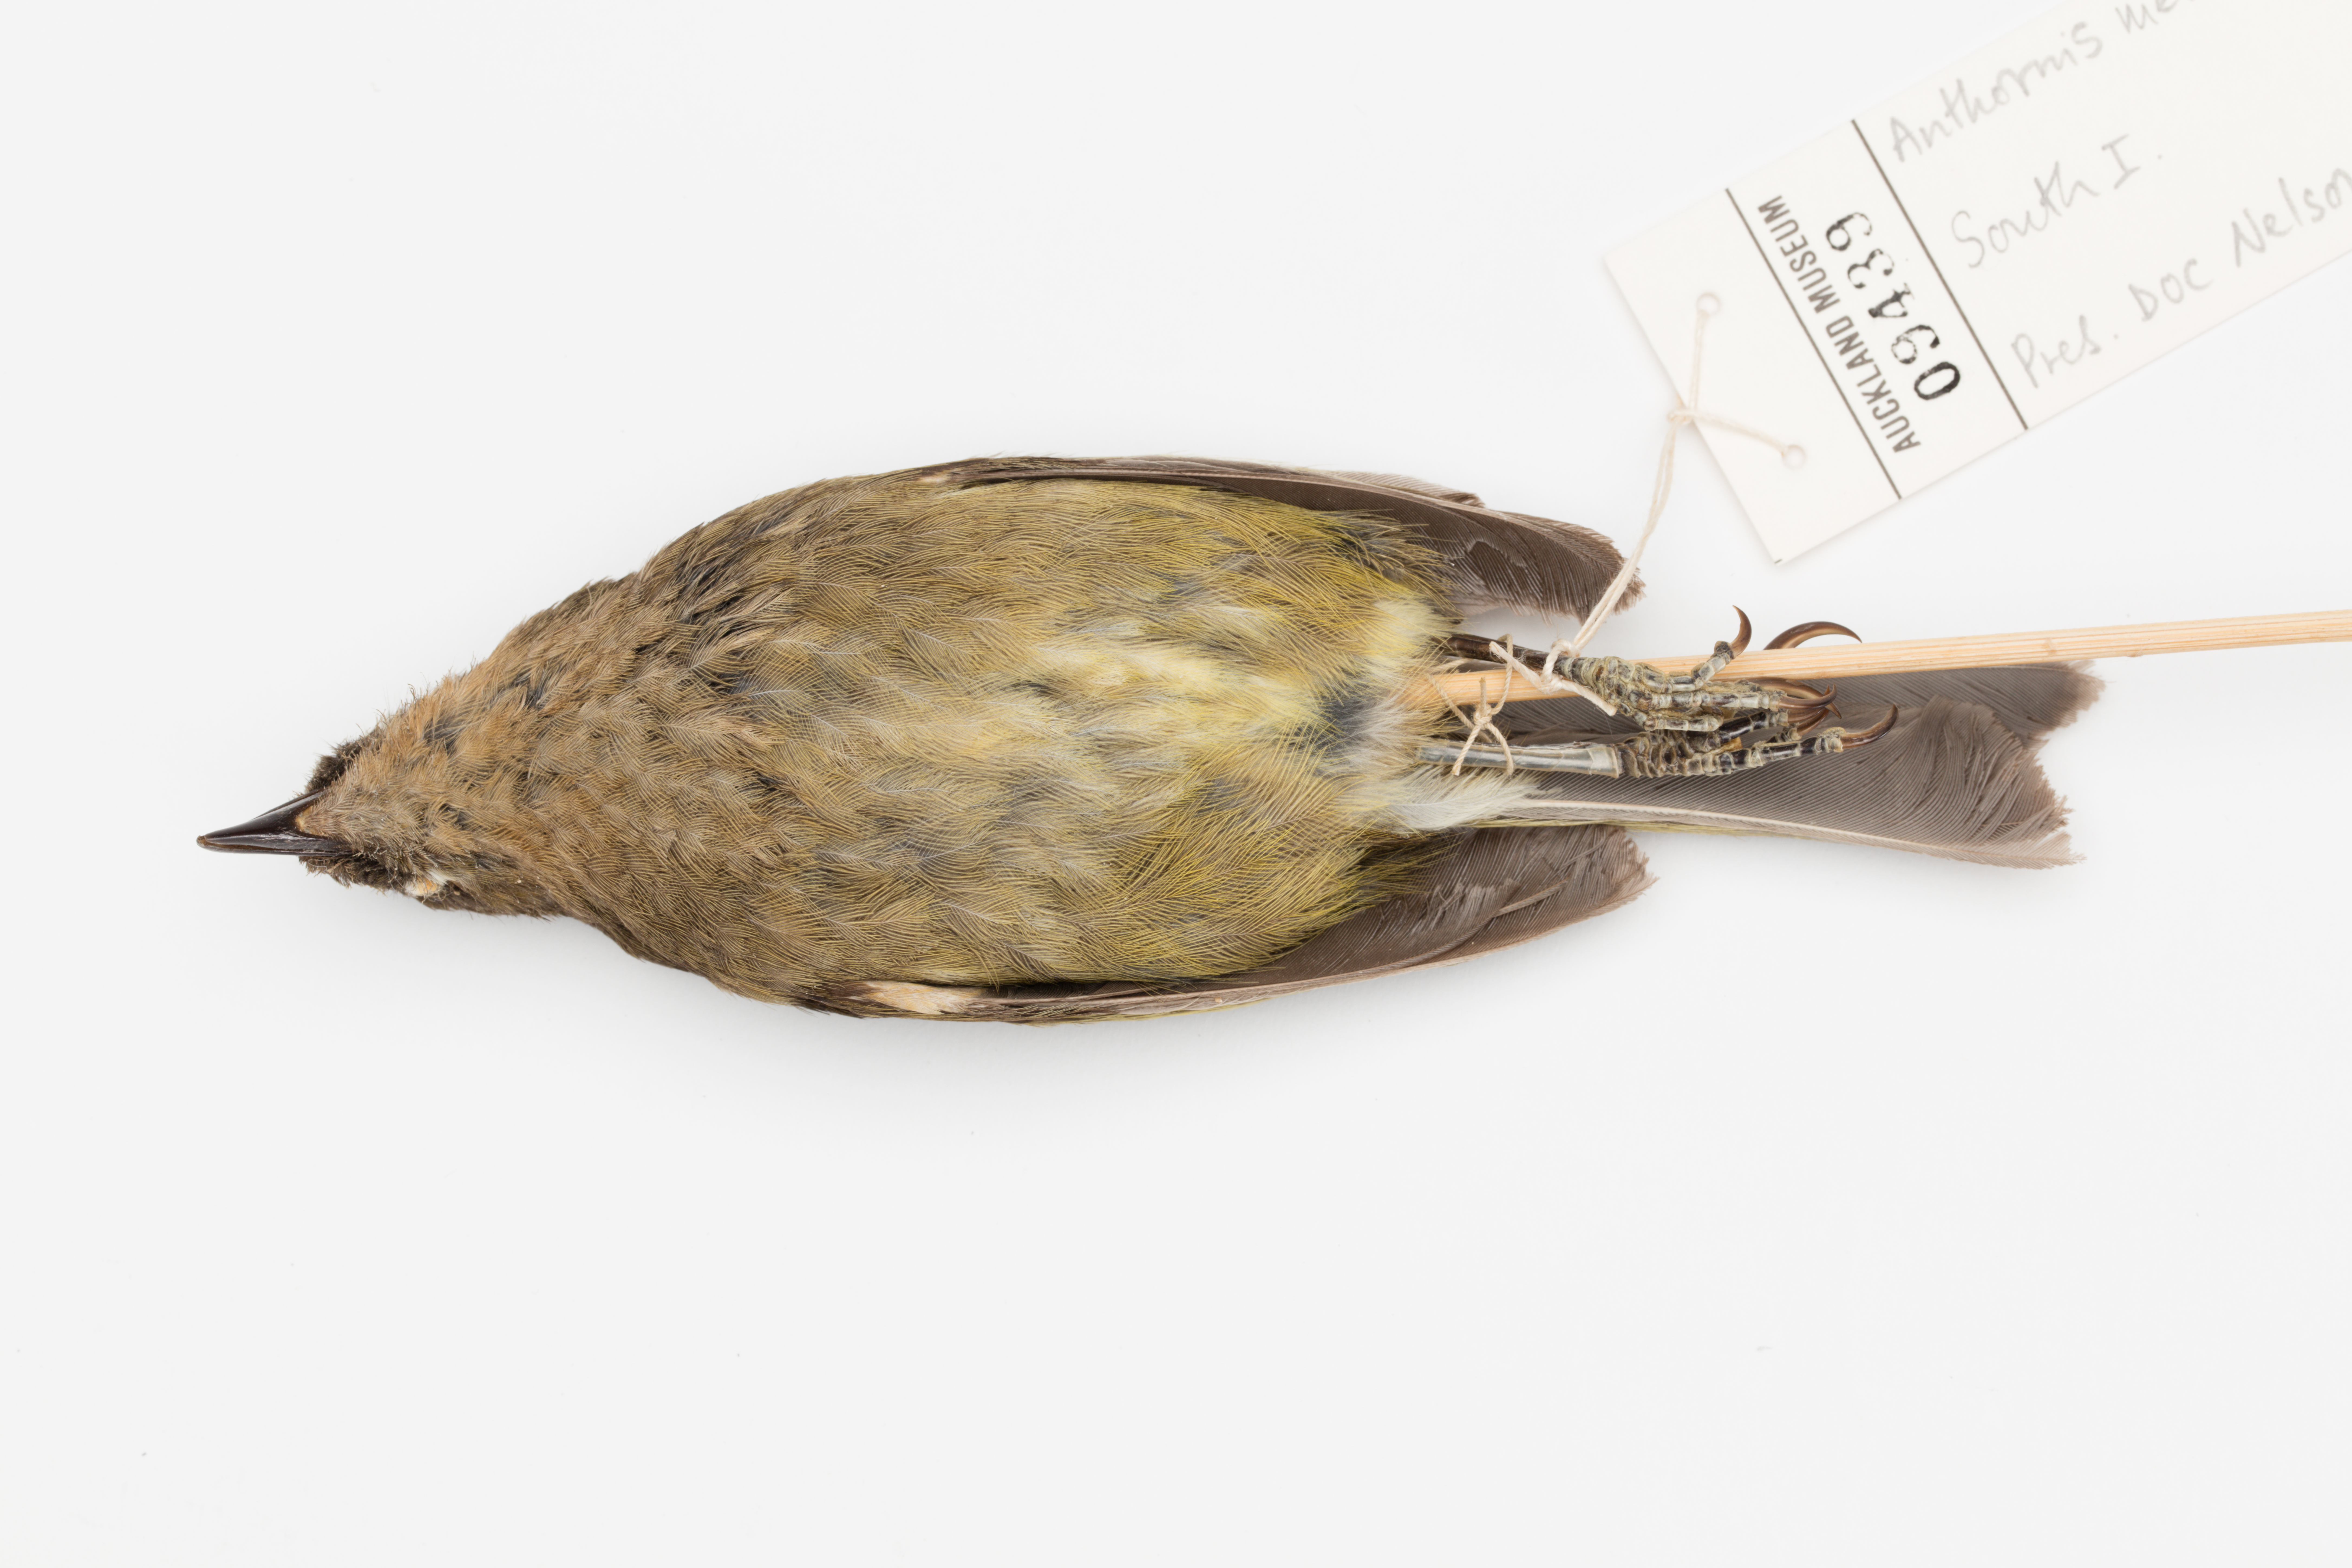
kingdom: Animalia
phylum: Chordata
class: Aves
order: Passeriformes
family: Meliphagidae
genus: Anthornis
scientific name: Anthornis melanura
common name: New zealand bellbird
